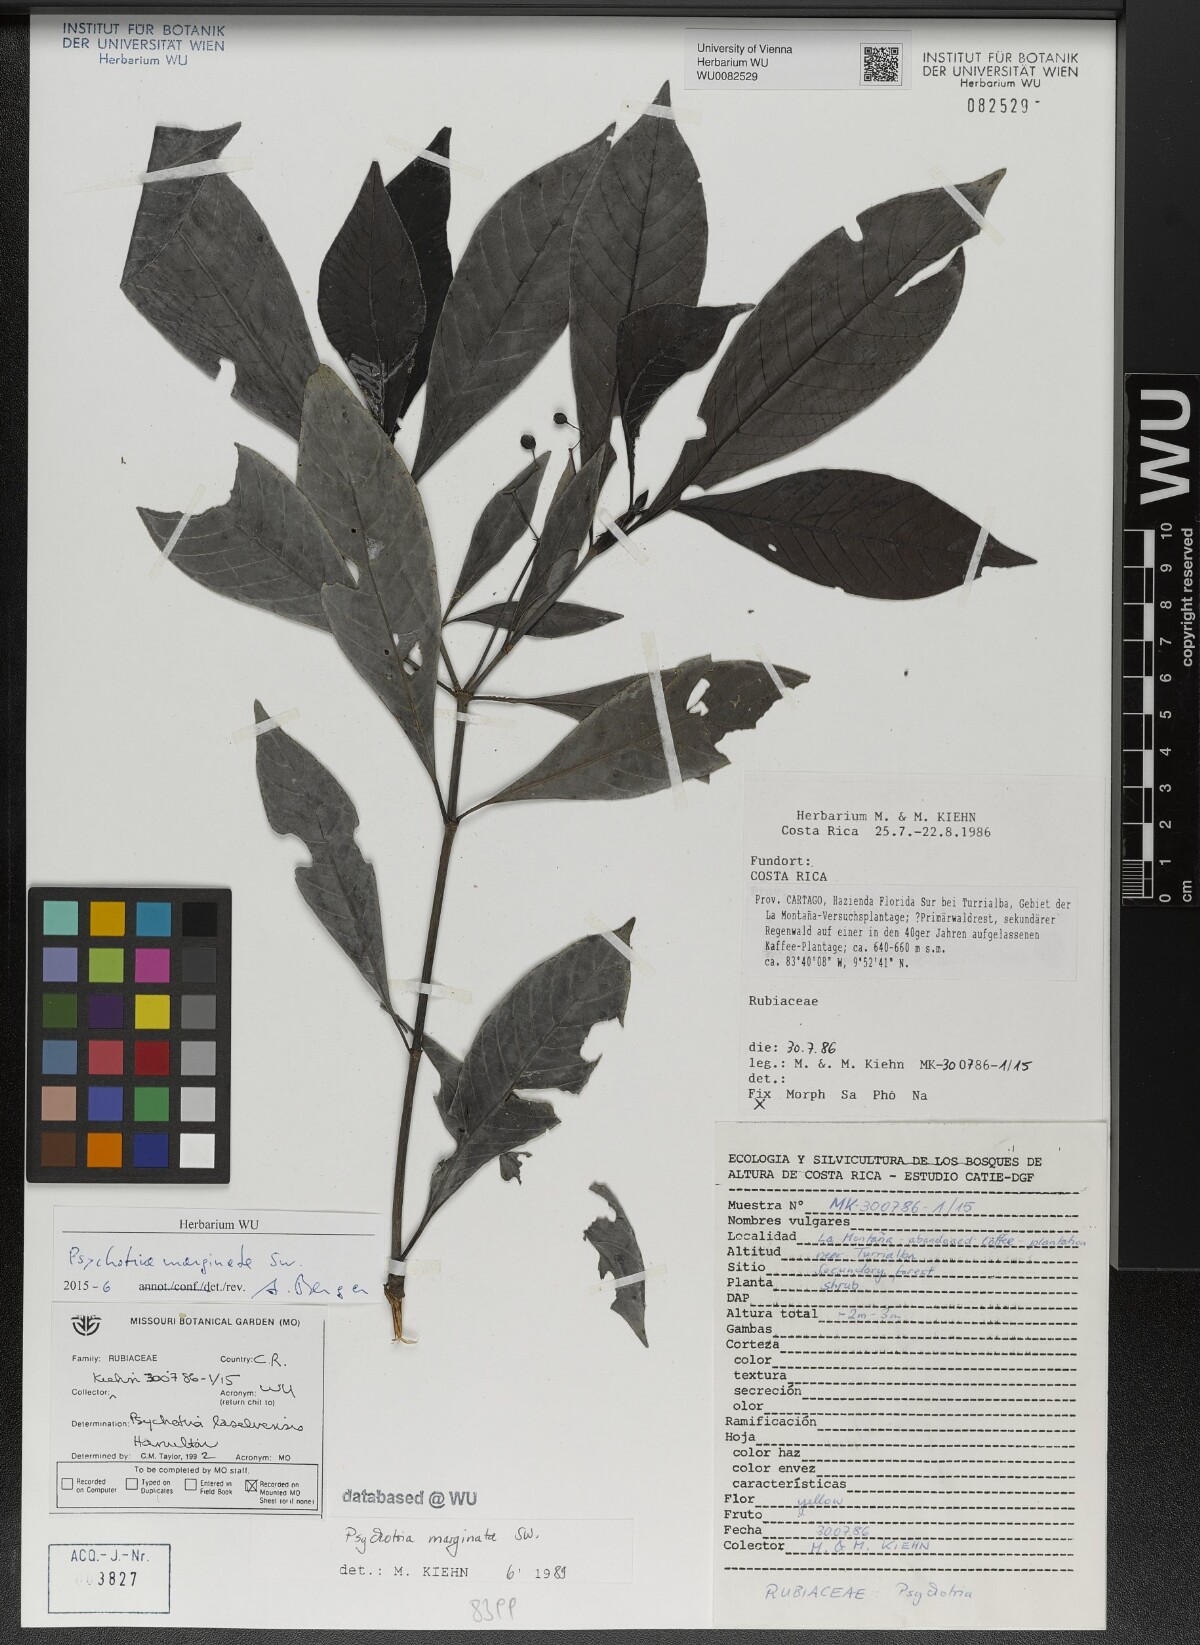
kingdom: Plantae
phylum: Tracheophyta
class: Magnoliopsida
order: Gentianales
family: Rubiaceae
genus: Psychotria
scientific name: Psychotria marginata
